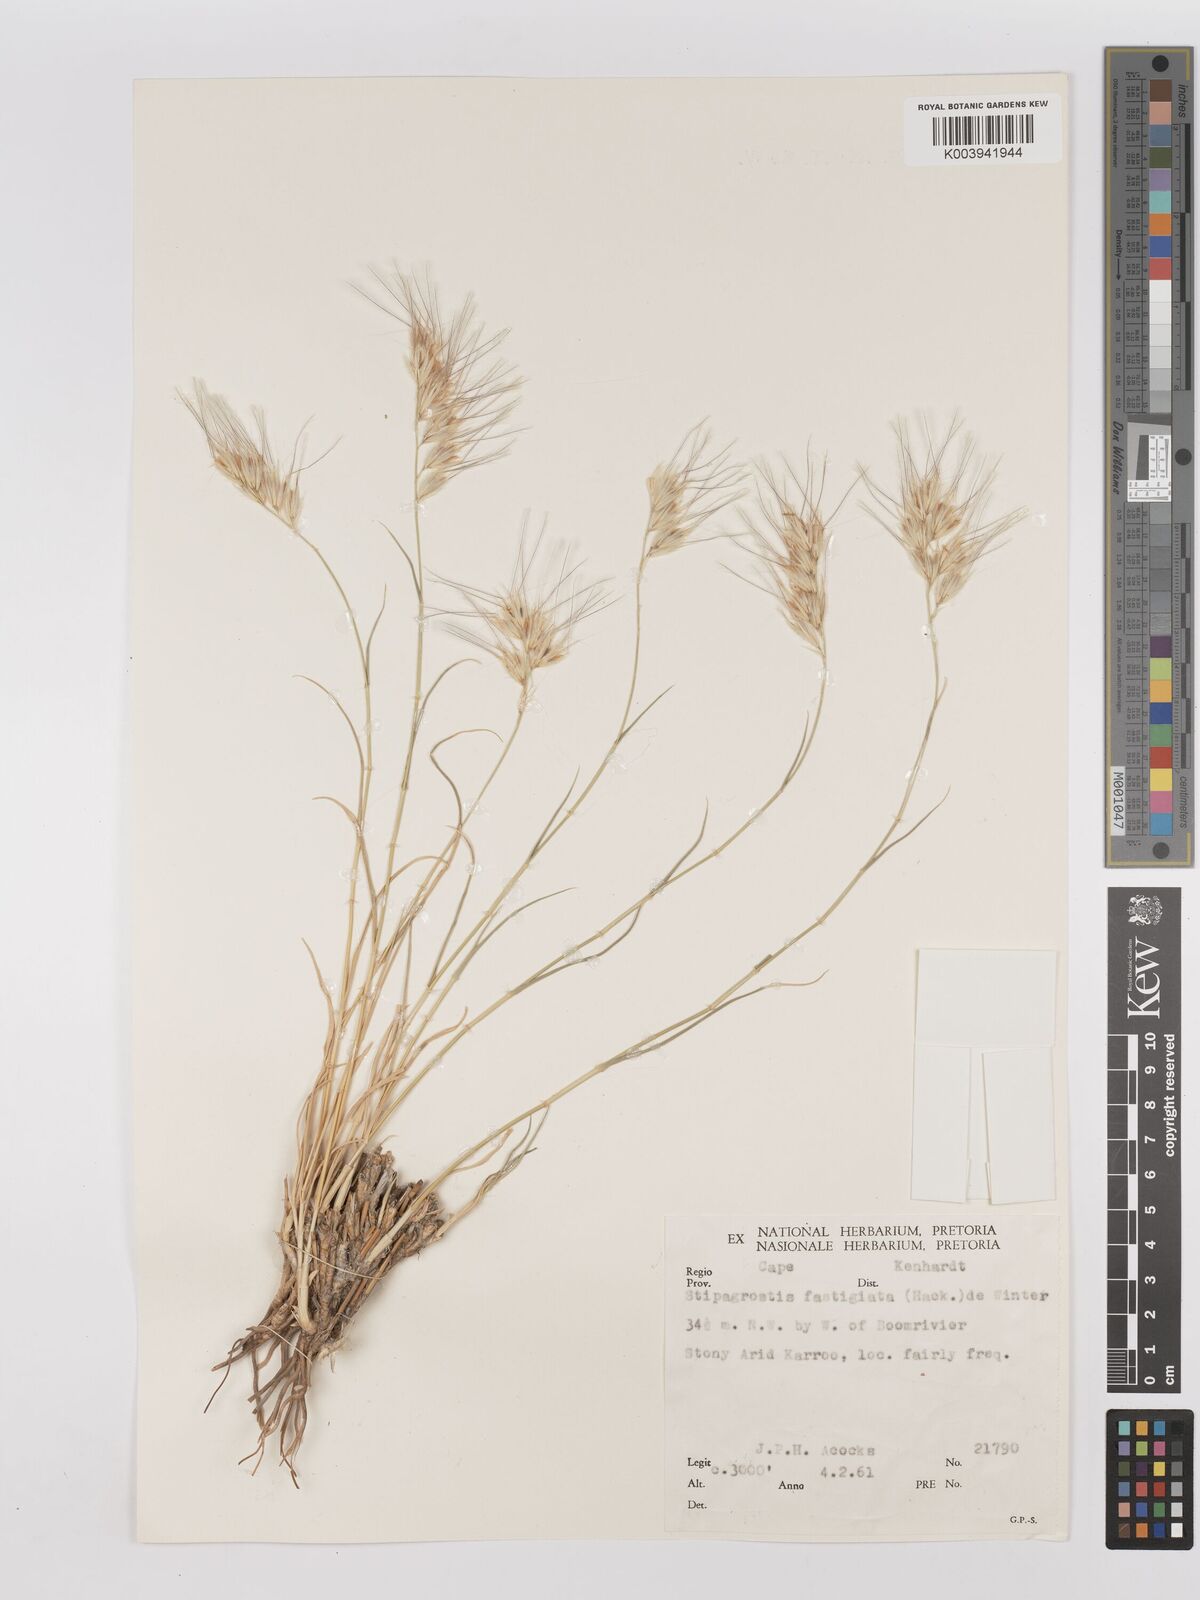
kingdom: Plantae
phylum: Tracheophyta
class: Liliopsida
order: Poales
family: Poaceae
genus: Stipagrostis
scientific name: Stipagrostis fastigiata
